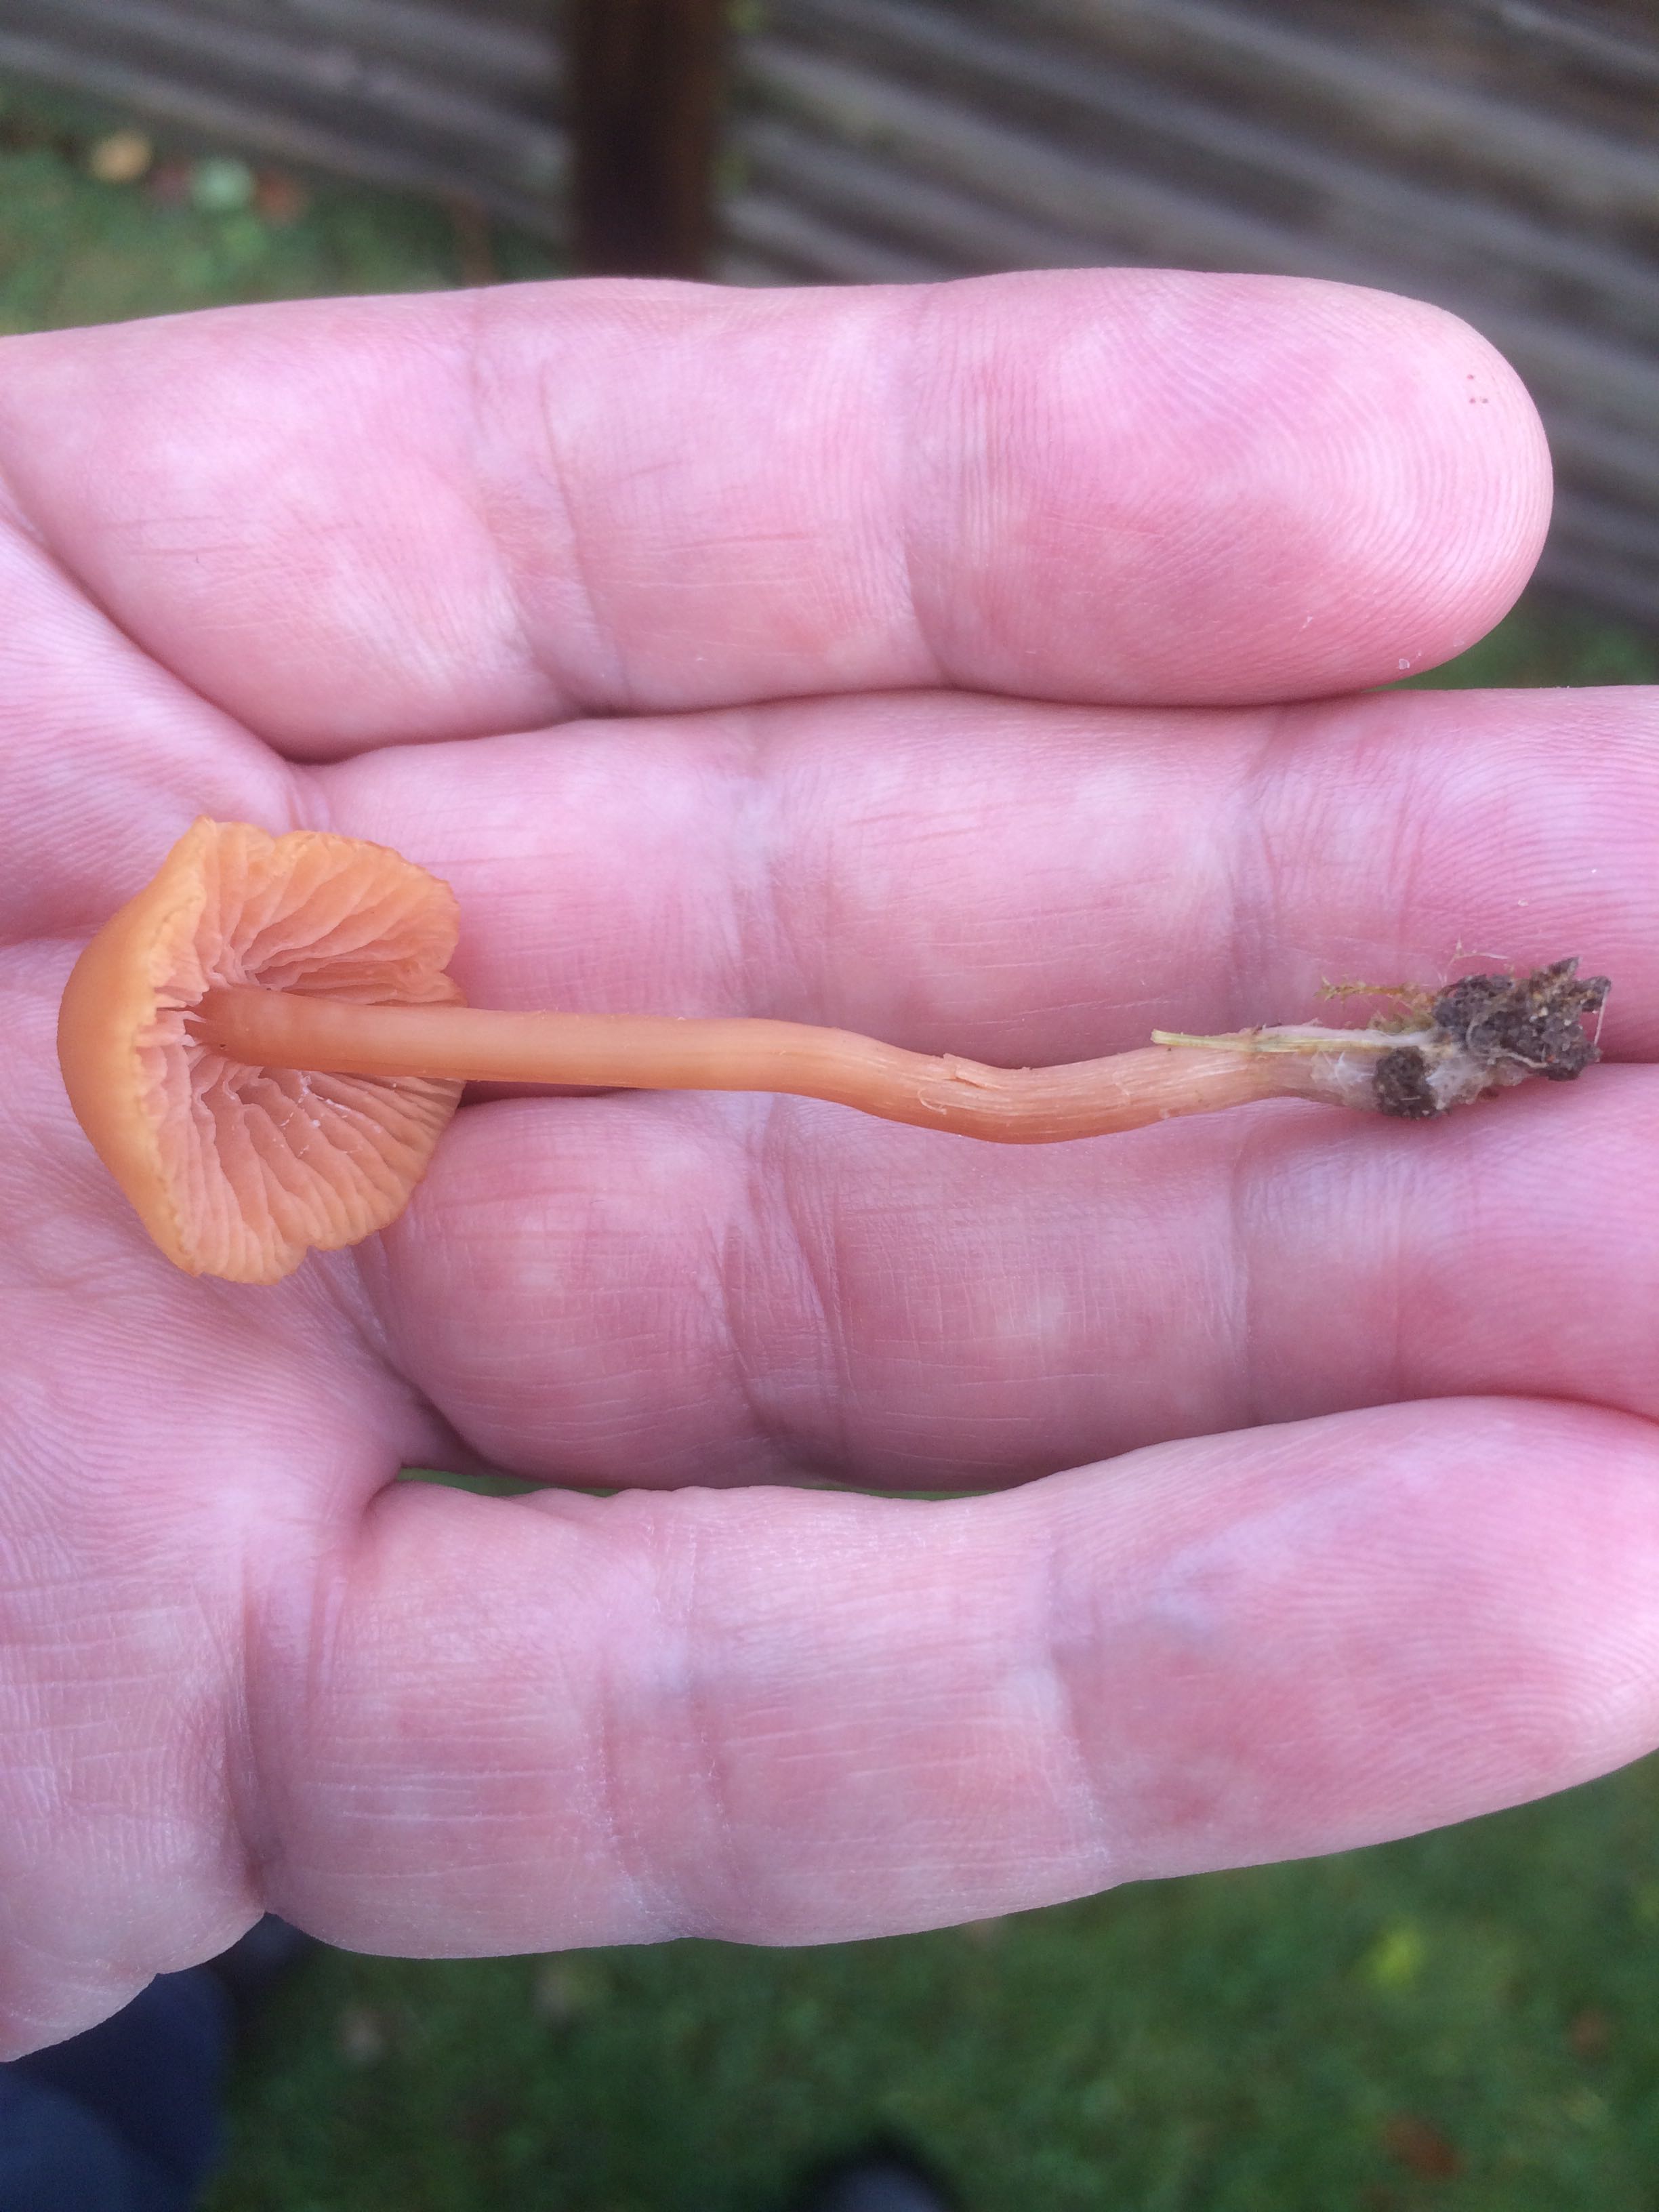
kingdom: Fungi
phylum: Basidiomycota
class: Agaricomycetes
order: Agaricales
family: Hydnangiaceae
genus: Laccaria
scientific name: Laccaria laccata
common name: rød ametysthat
